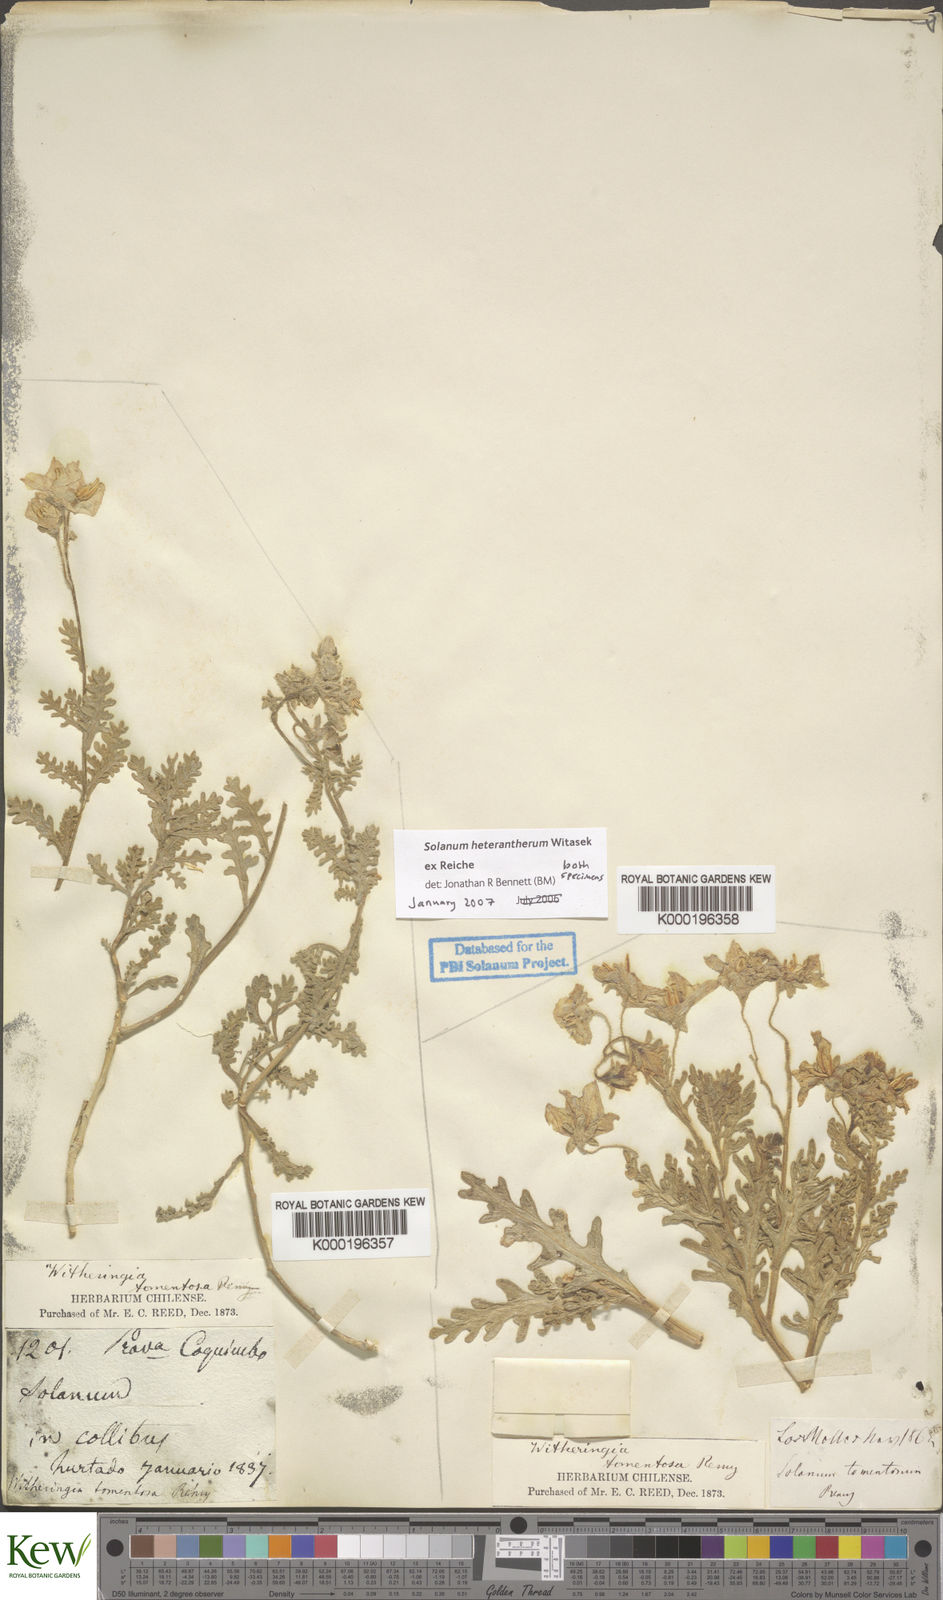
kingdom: Plantae
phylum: Tracheophyta
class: Magnoliopsida
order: Solanales
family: Solanaceae
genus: Solanum
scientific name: Solanum trinominum
